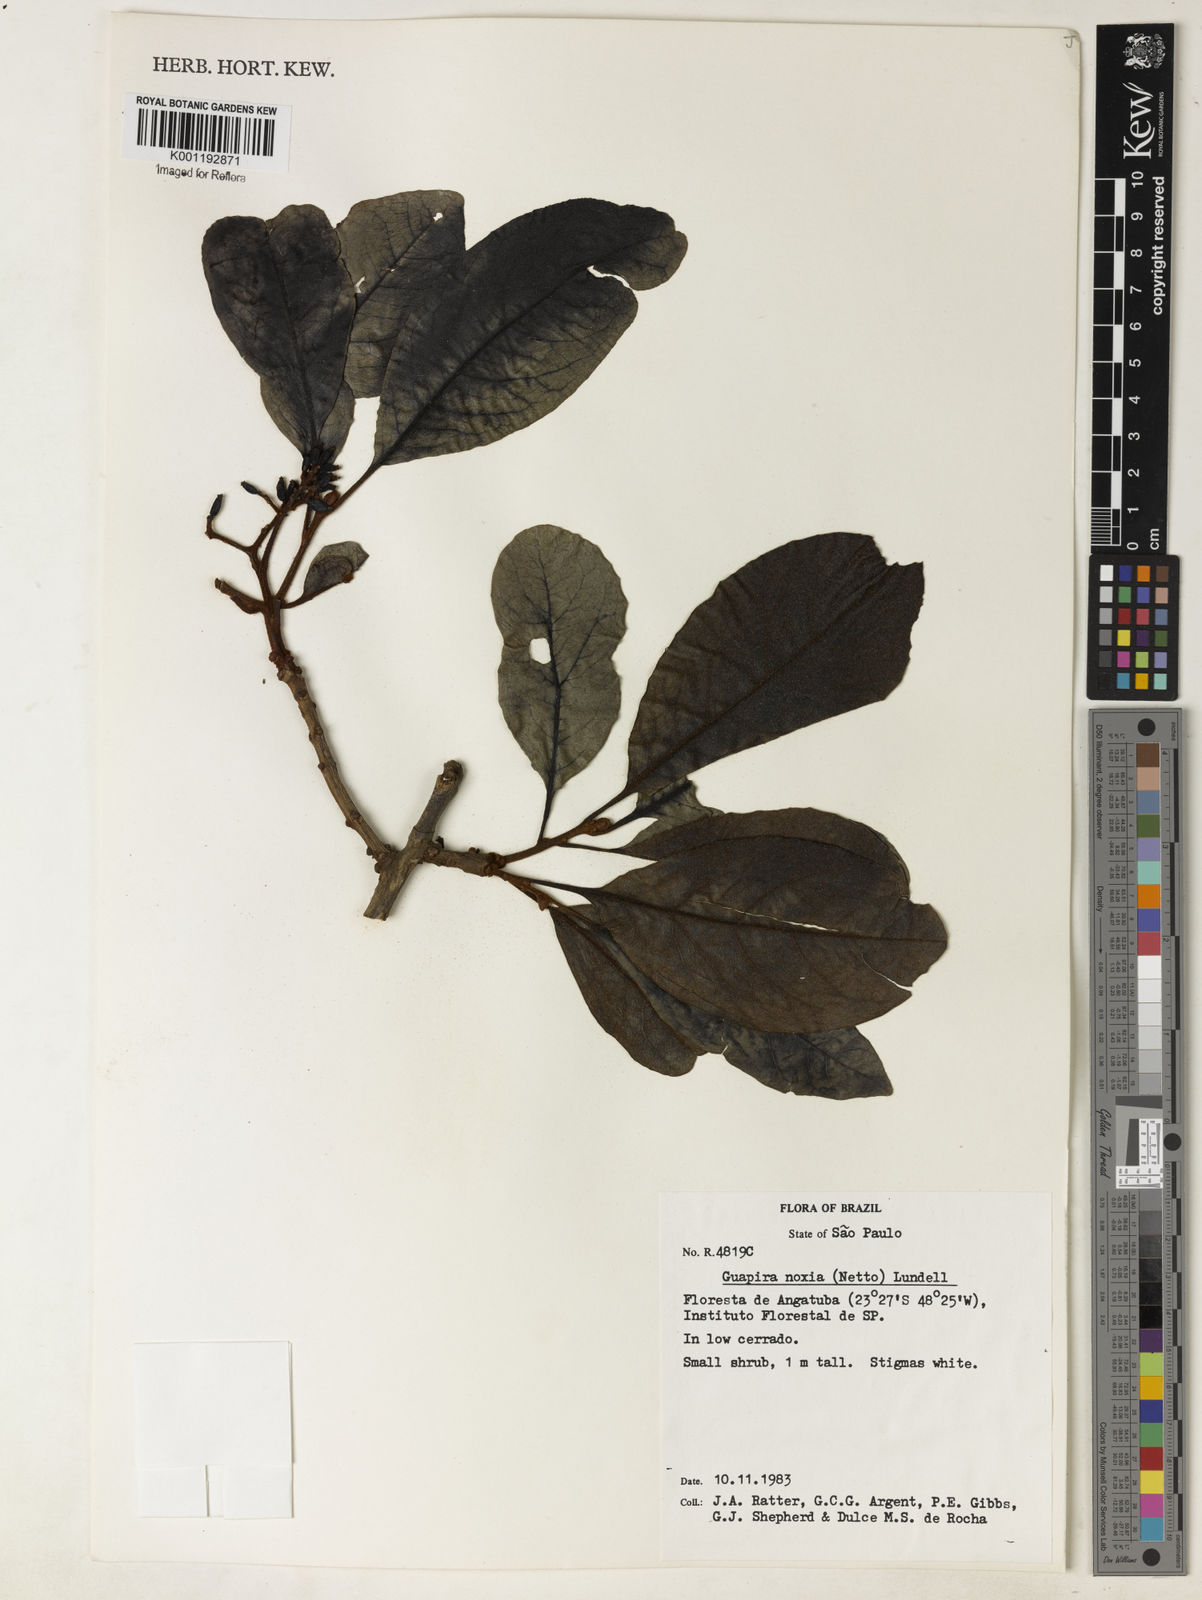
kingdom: Plantae
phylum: Tracheophyta
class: Magnoliopsida
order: Caryophyllales
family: Nyctaginaceae
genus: Guapira
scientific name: Guapira noxia
